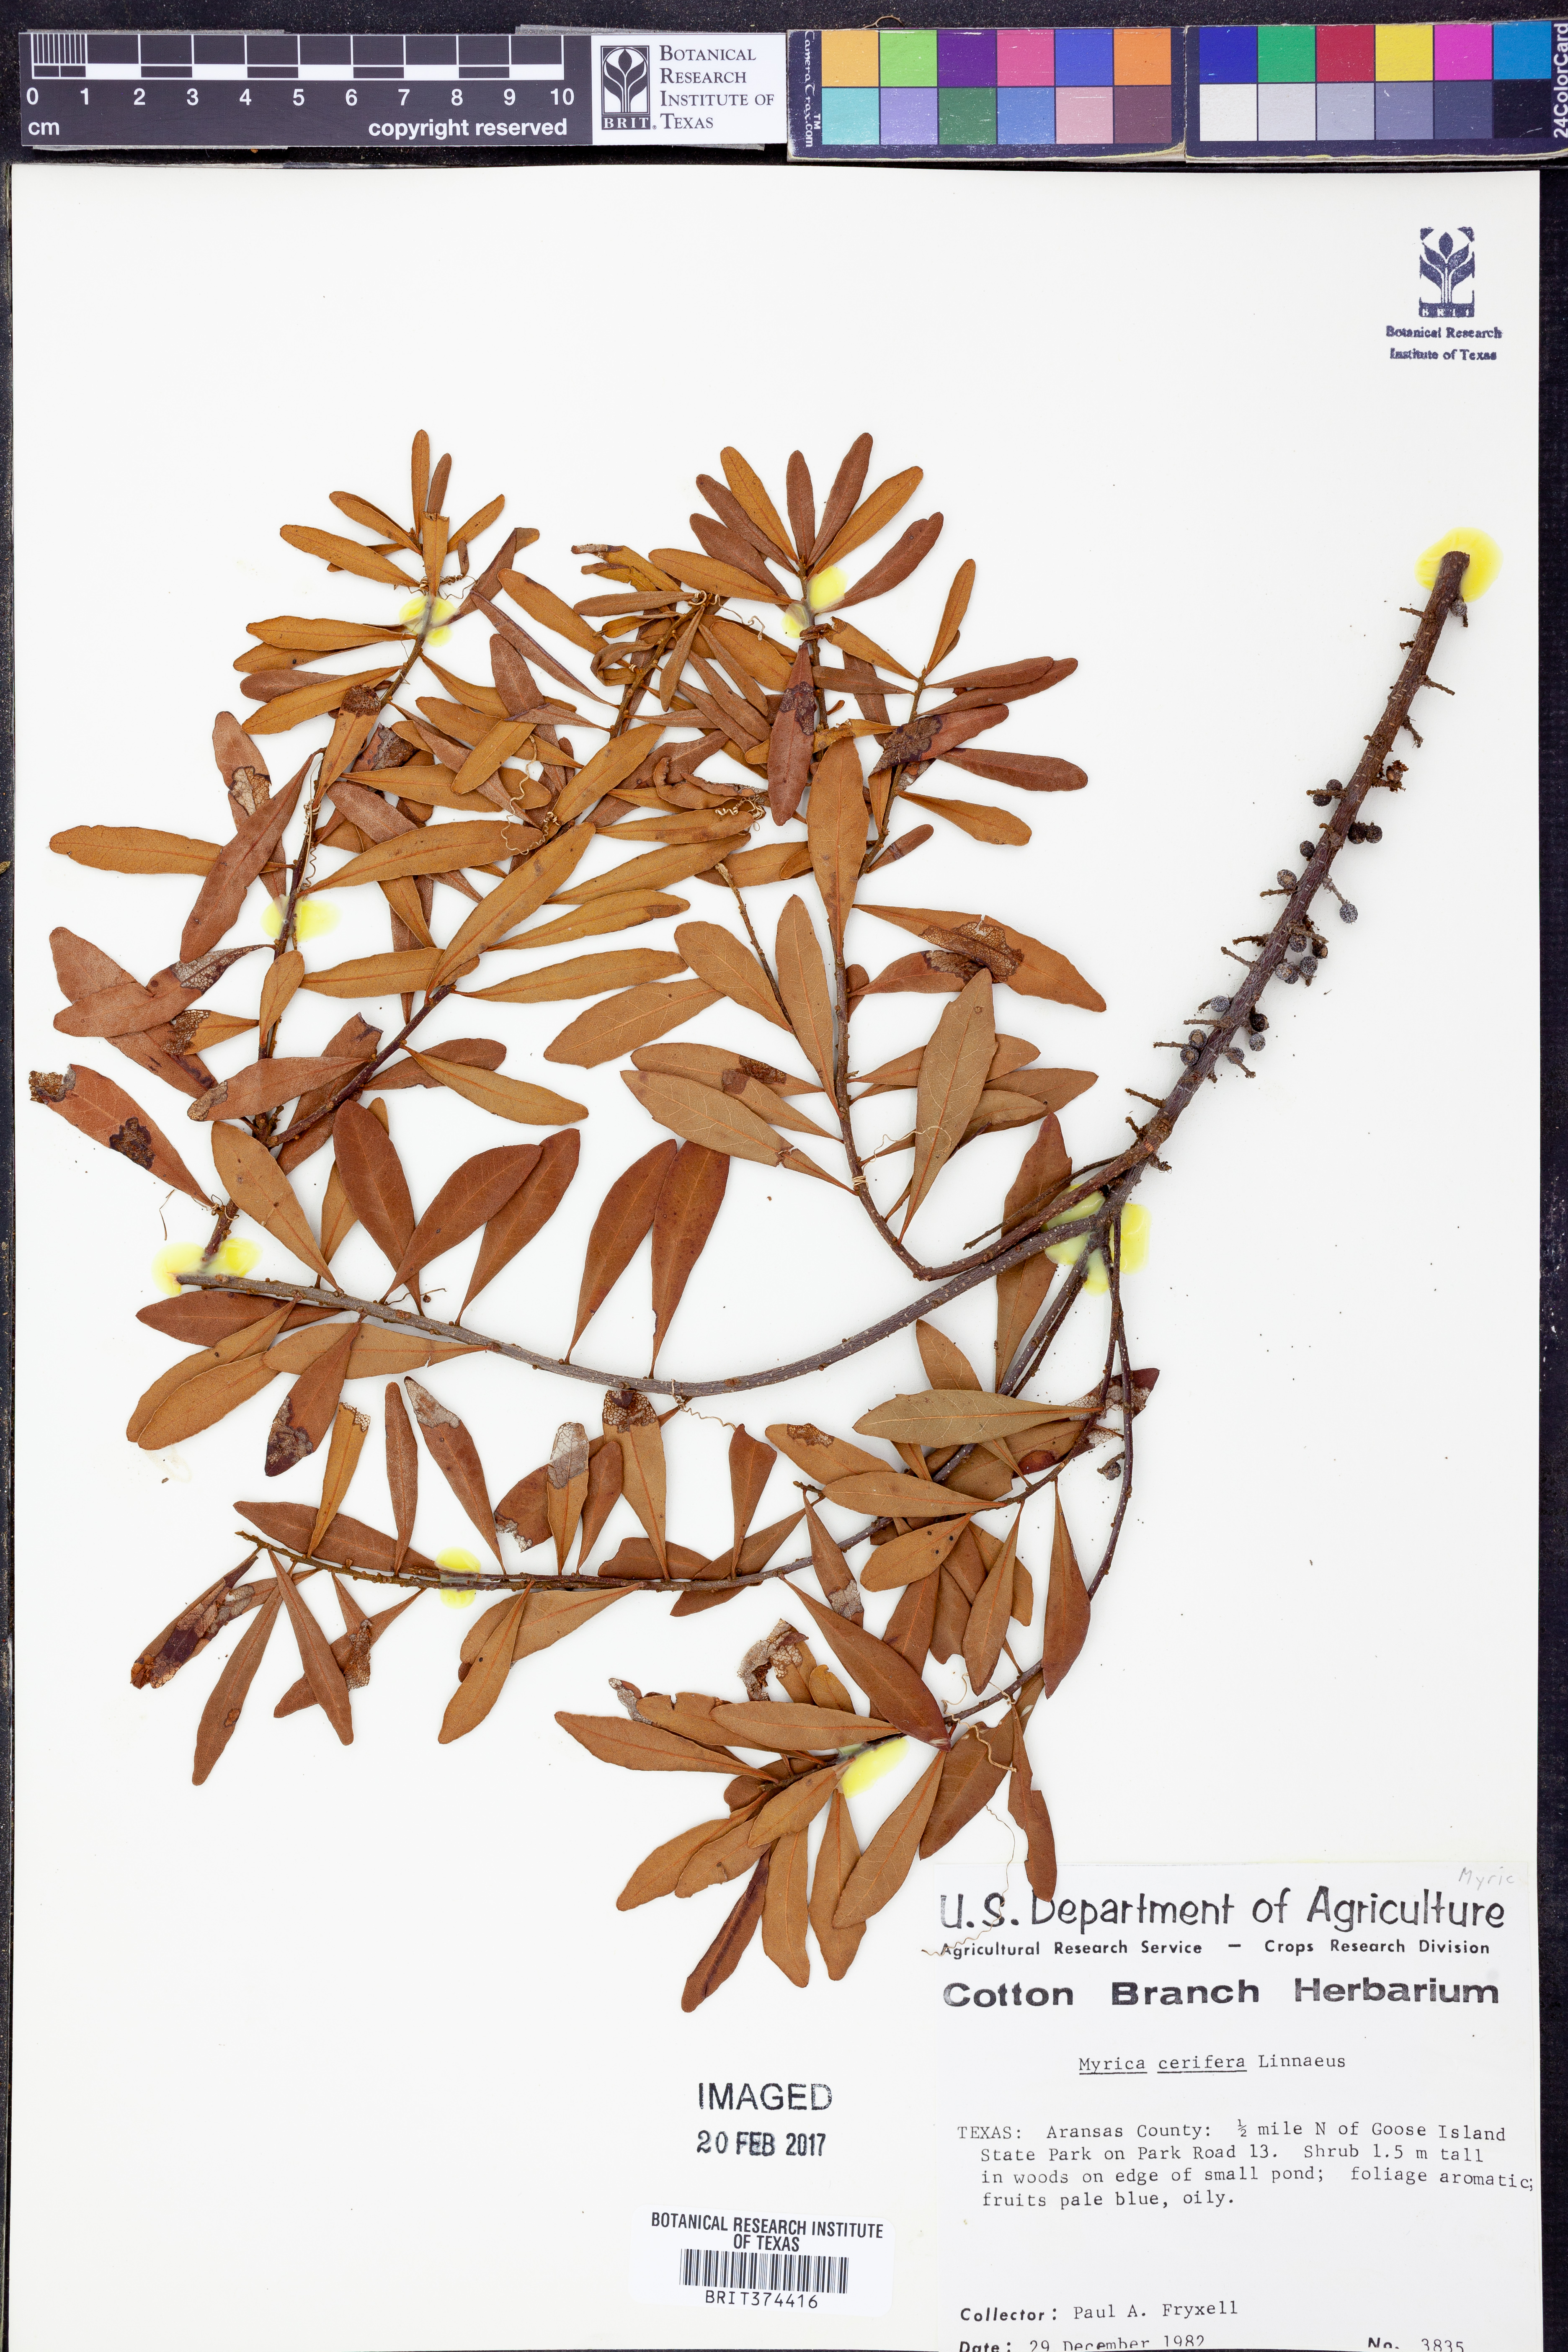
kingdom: Plantae
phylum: Tracheophyta
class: Magnoliopsida
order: Fagales
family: Myricaceae
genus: Morella
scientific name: Morella cerifera
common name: Wax myrtle
